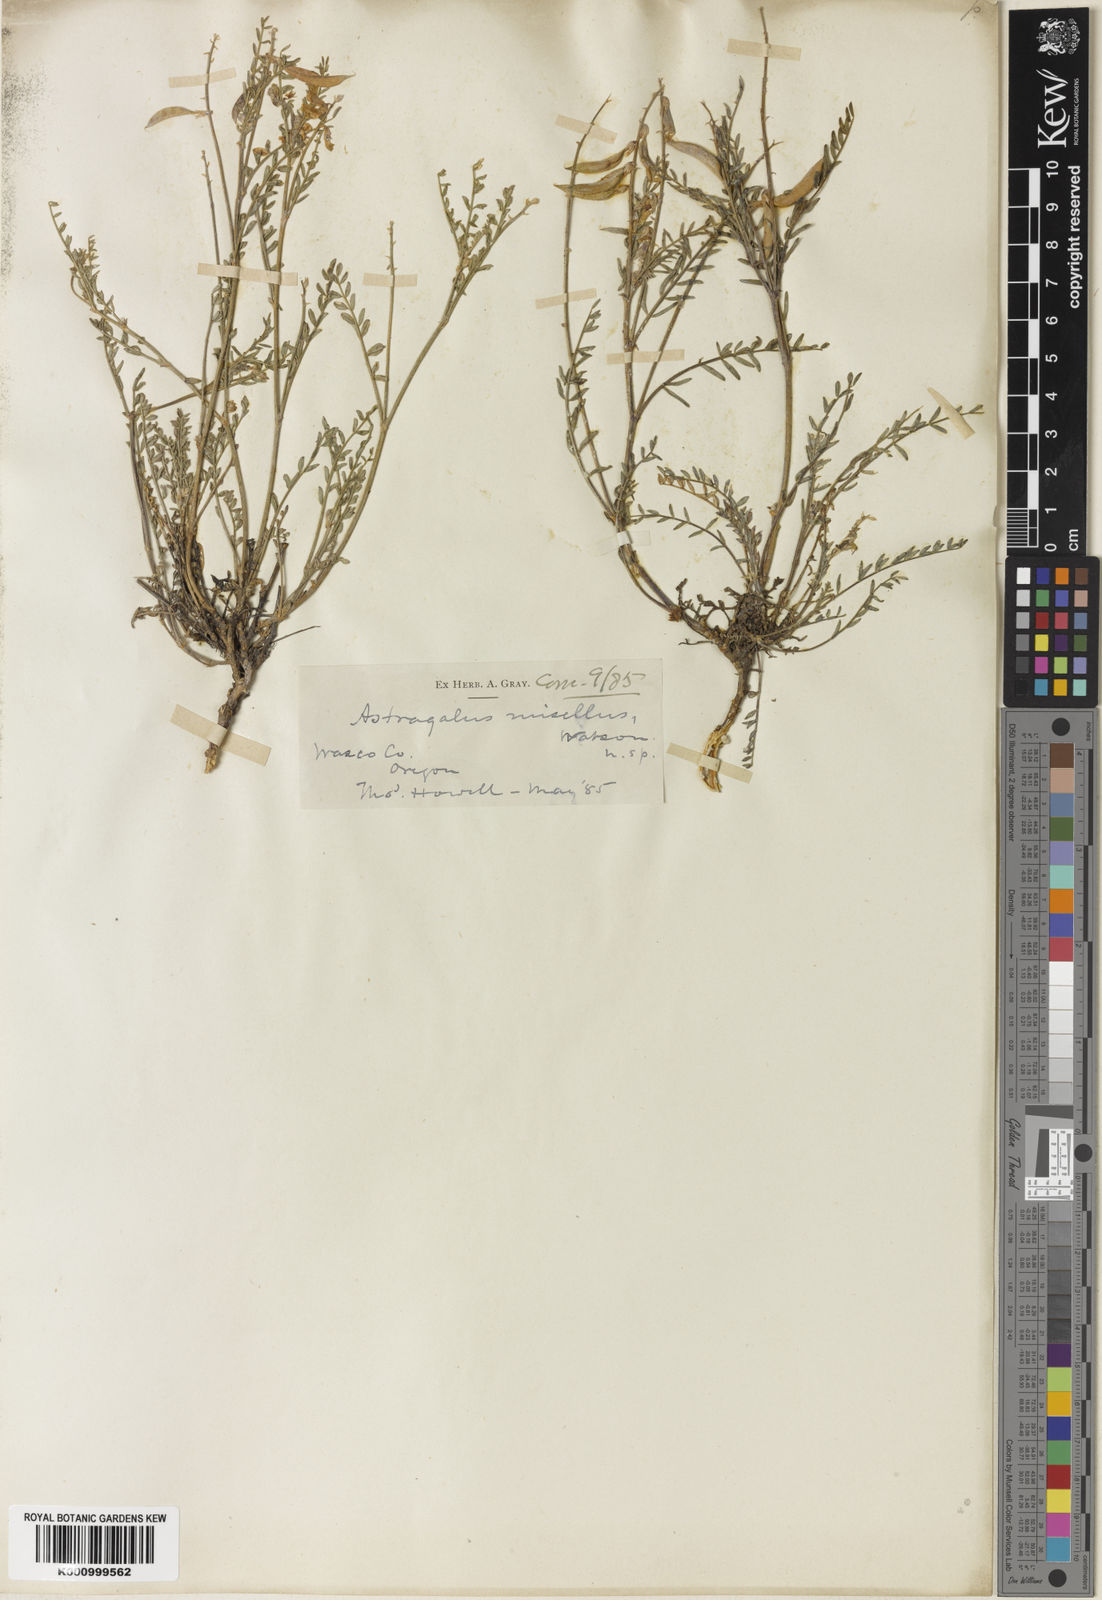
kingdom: Plantae
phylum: Tracheophyta
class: Magnoliopsida
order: Fabales
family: Fabaceae
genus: Astragalus
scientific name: Astragalus misellus
